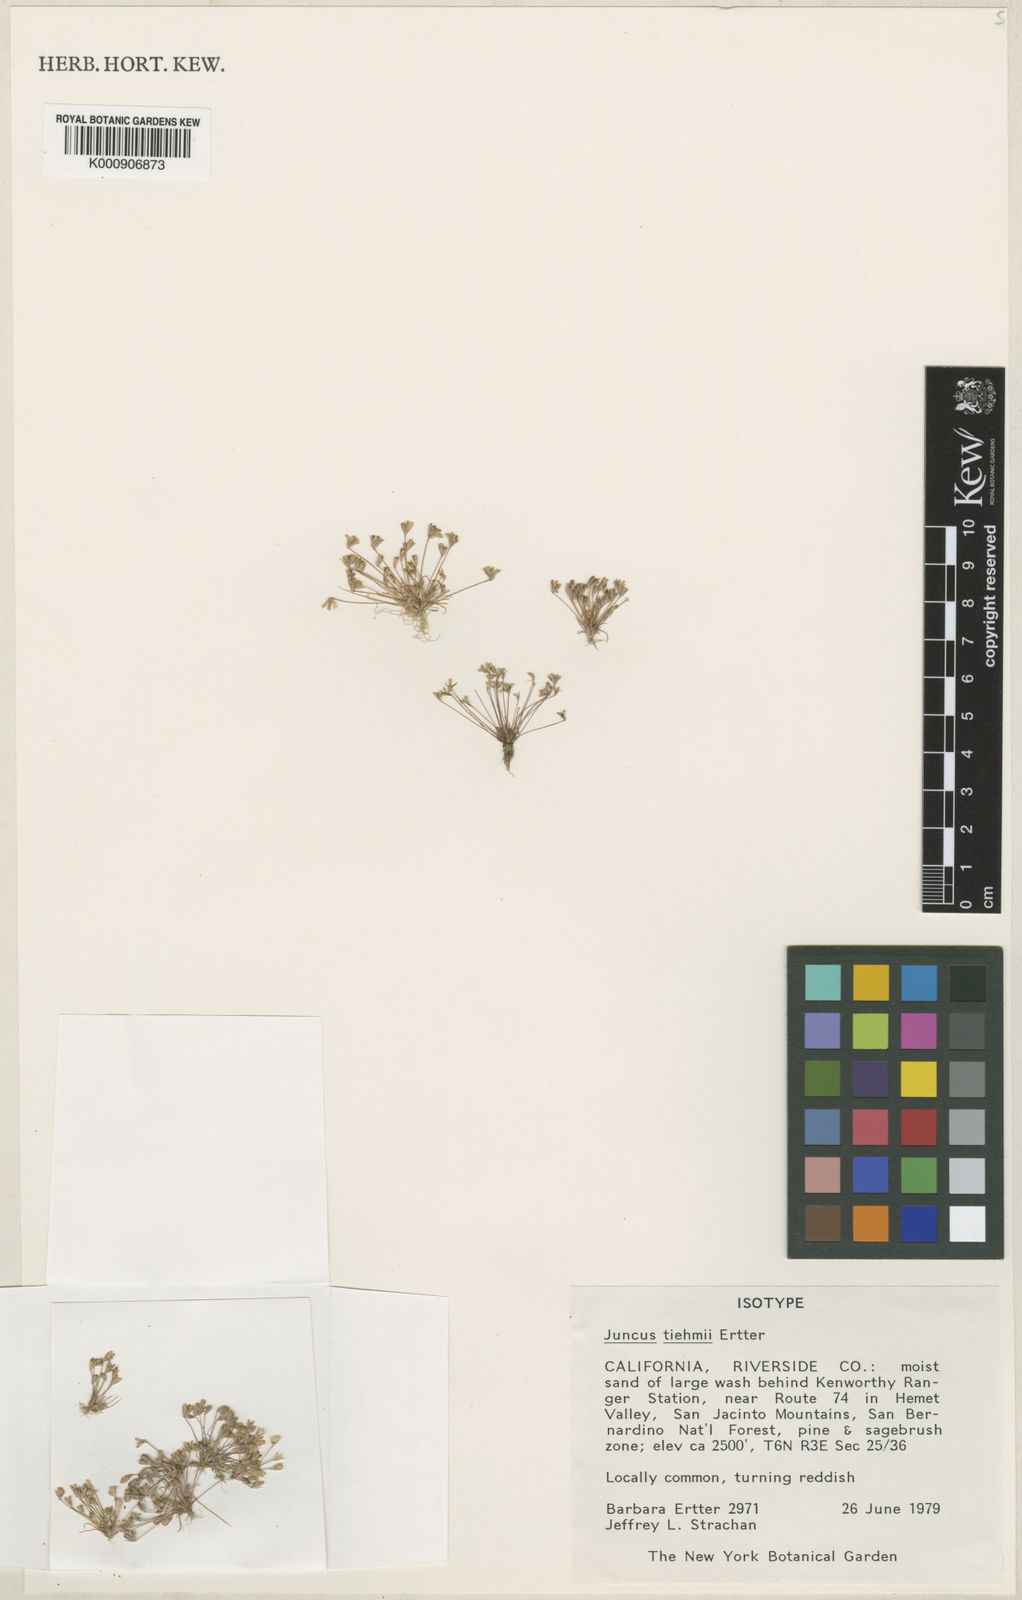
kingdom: Plantae
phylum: Tracheophyta
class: Liliopsida
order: Poales
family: Juncaceae
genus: Juncus
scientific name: Juncus tiehmii
